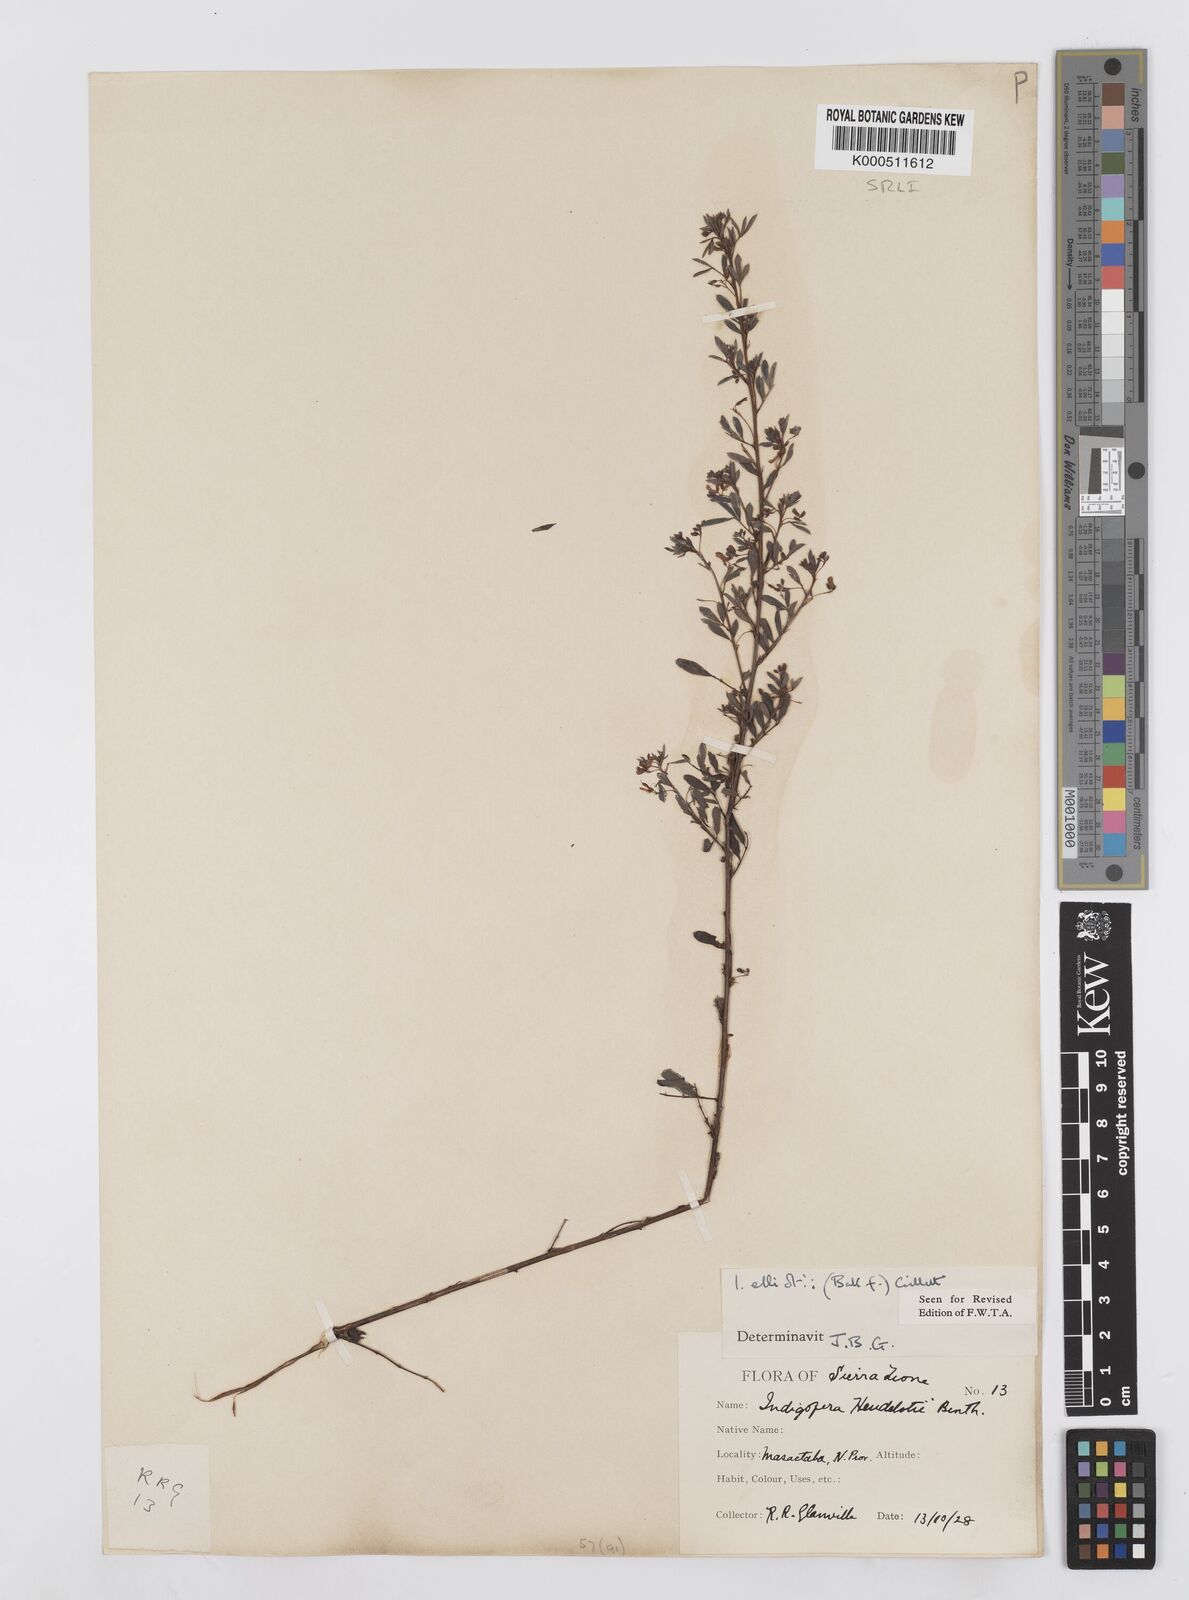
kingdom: Plantae
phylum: Tracheophyta
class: Magnoliopsida
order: Fabales
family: Fabaceae
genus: Indigofera
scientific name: Indigofera elliotii
